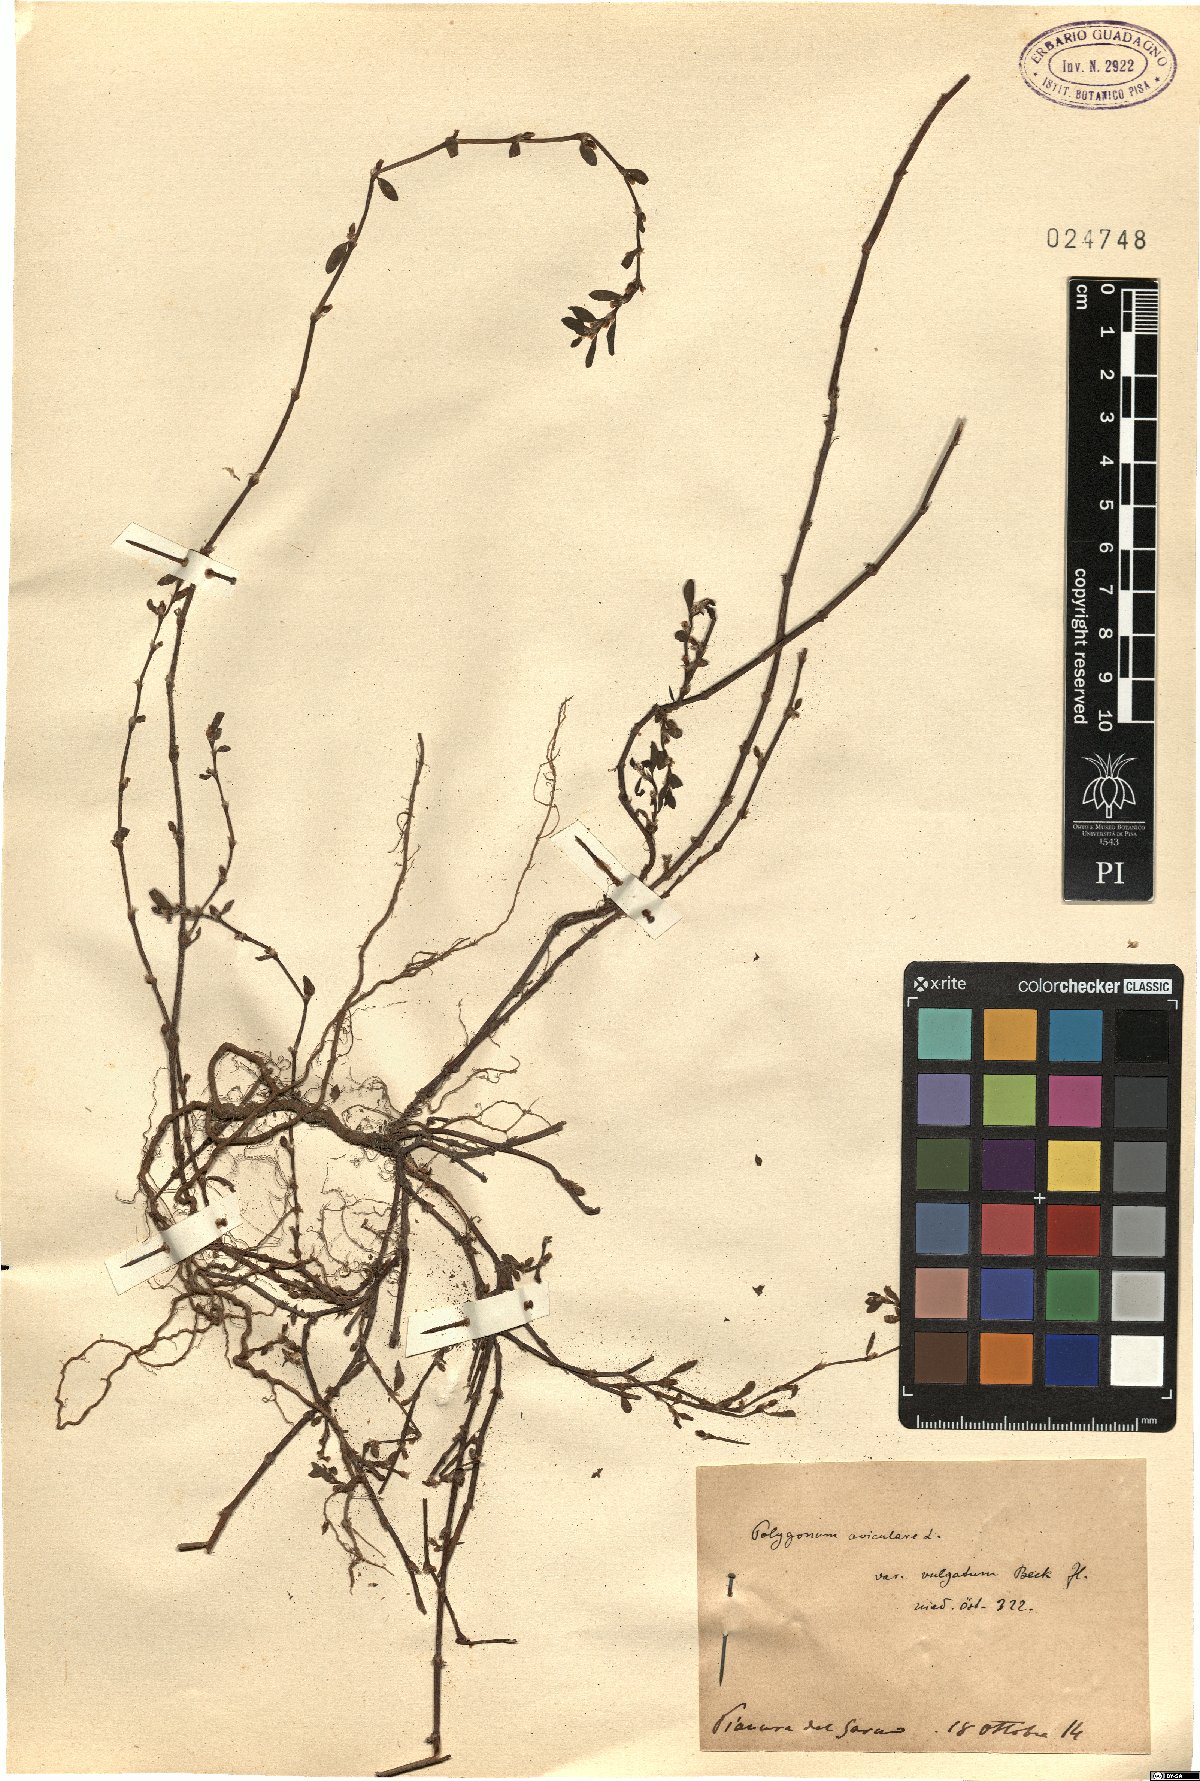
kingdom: Plantae
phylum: Tracheophyta
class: Magnoliopsida
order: Caryophyllales
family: Polygonaceae
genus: Polygonum
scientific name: Polygonum aviculare
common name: Prostrate knotweed
